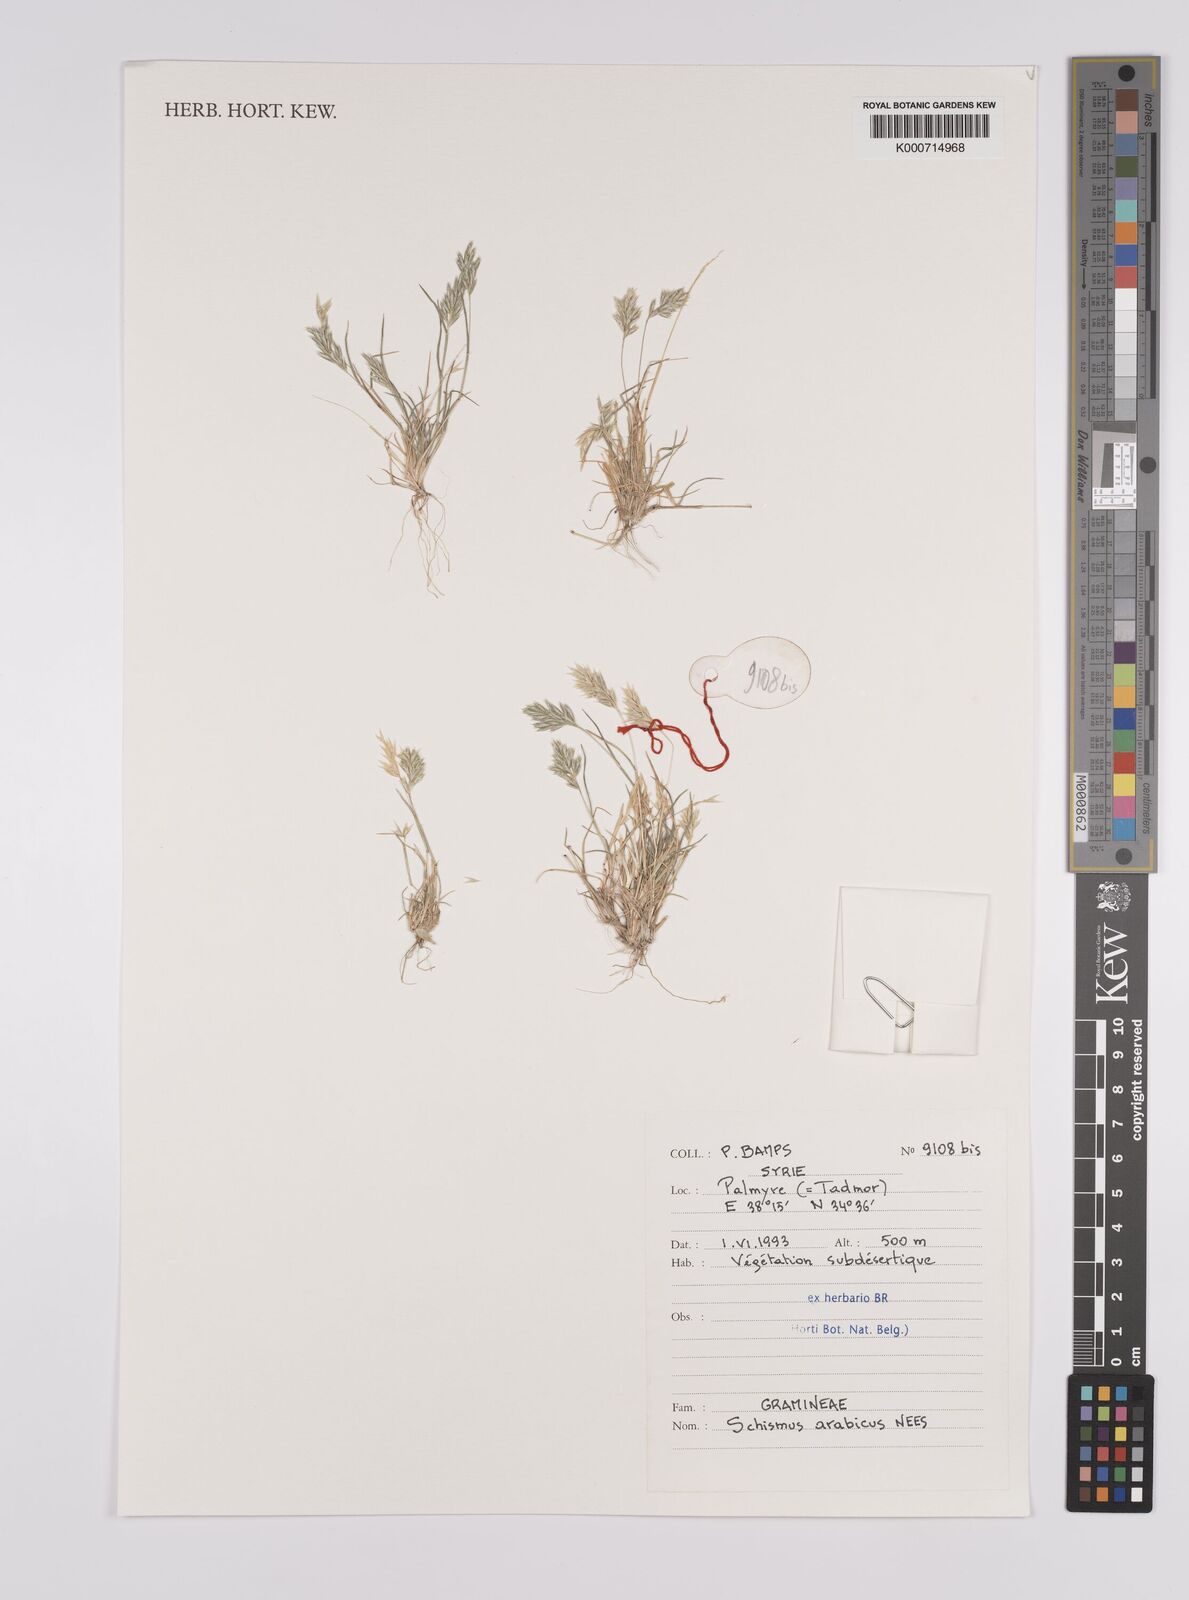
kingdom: Plantae
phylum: Tracheophyta
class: Liliopsida
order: Poales
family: Poaceae
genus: Schismus
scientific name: Schismus arabicus
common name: Arabian schismus
